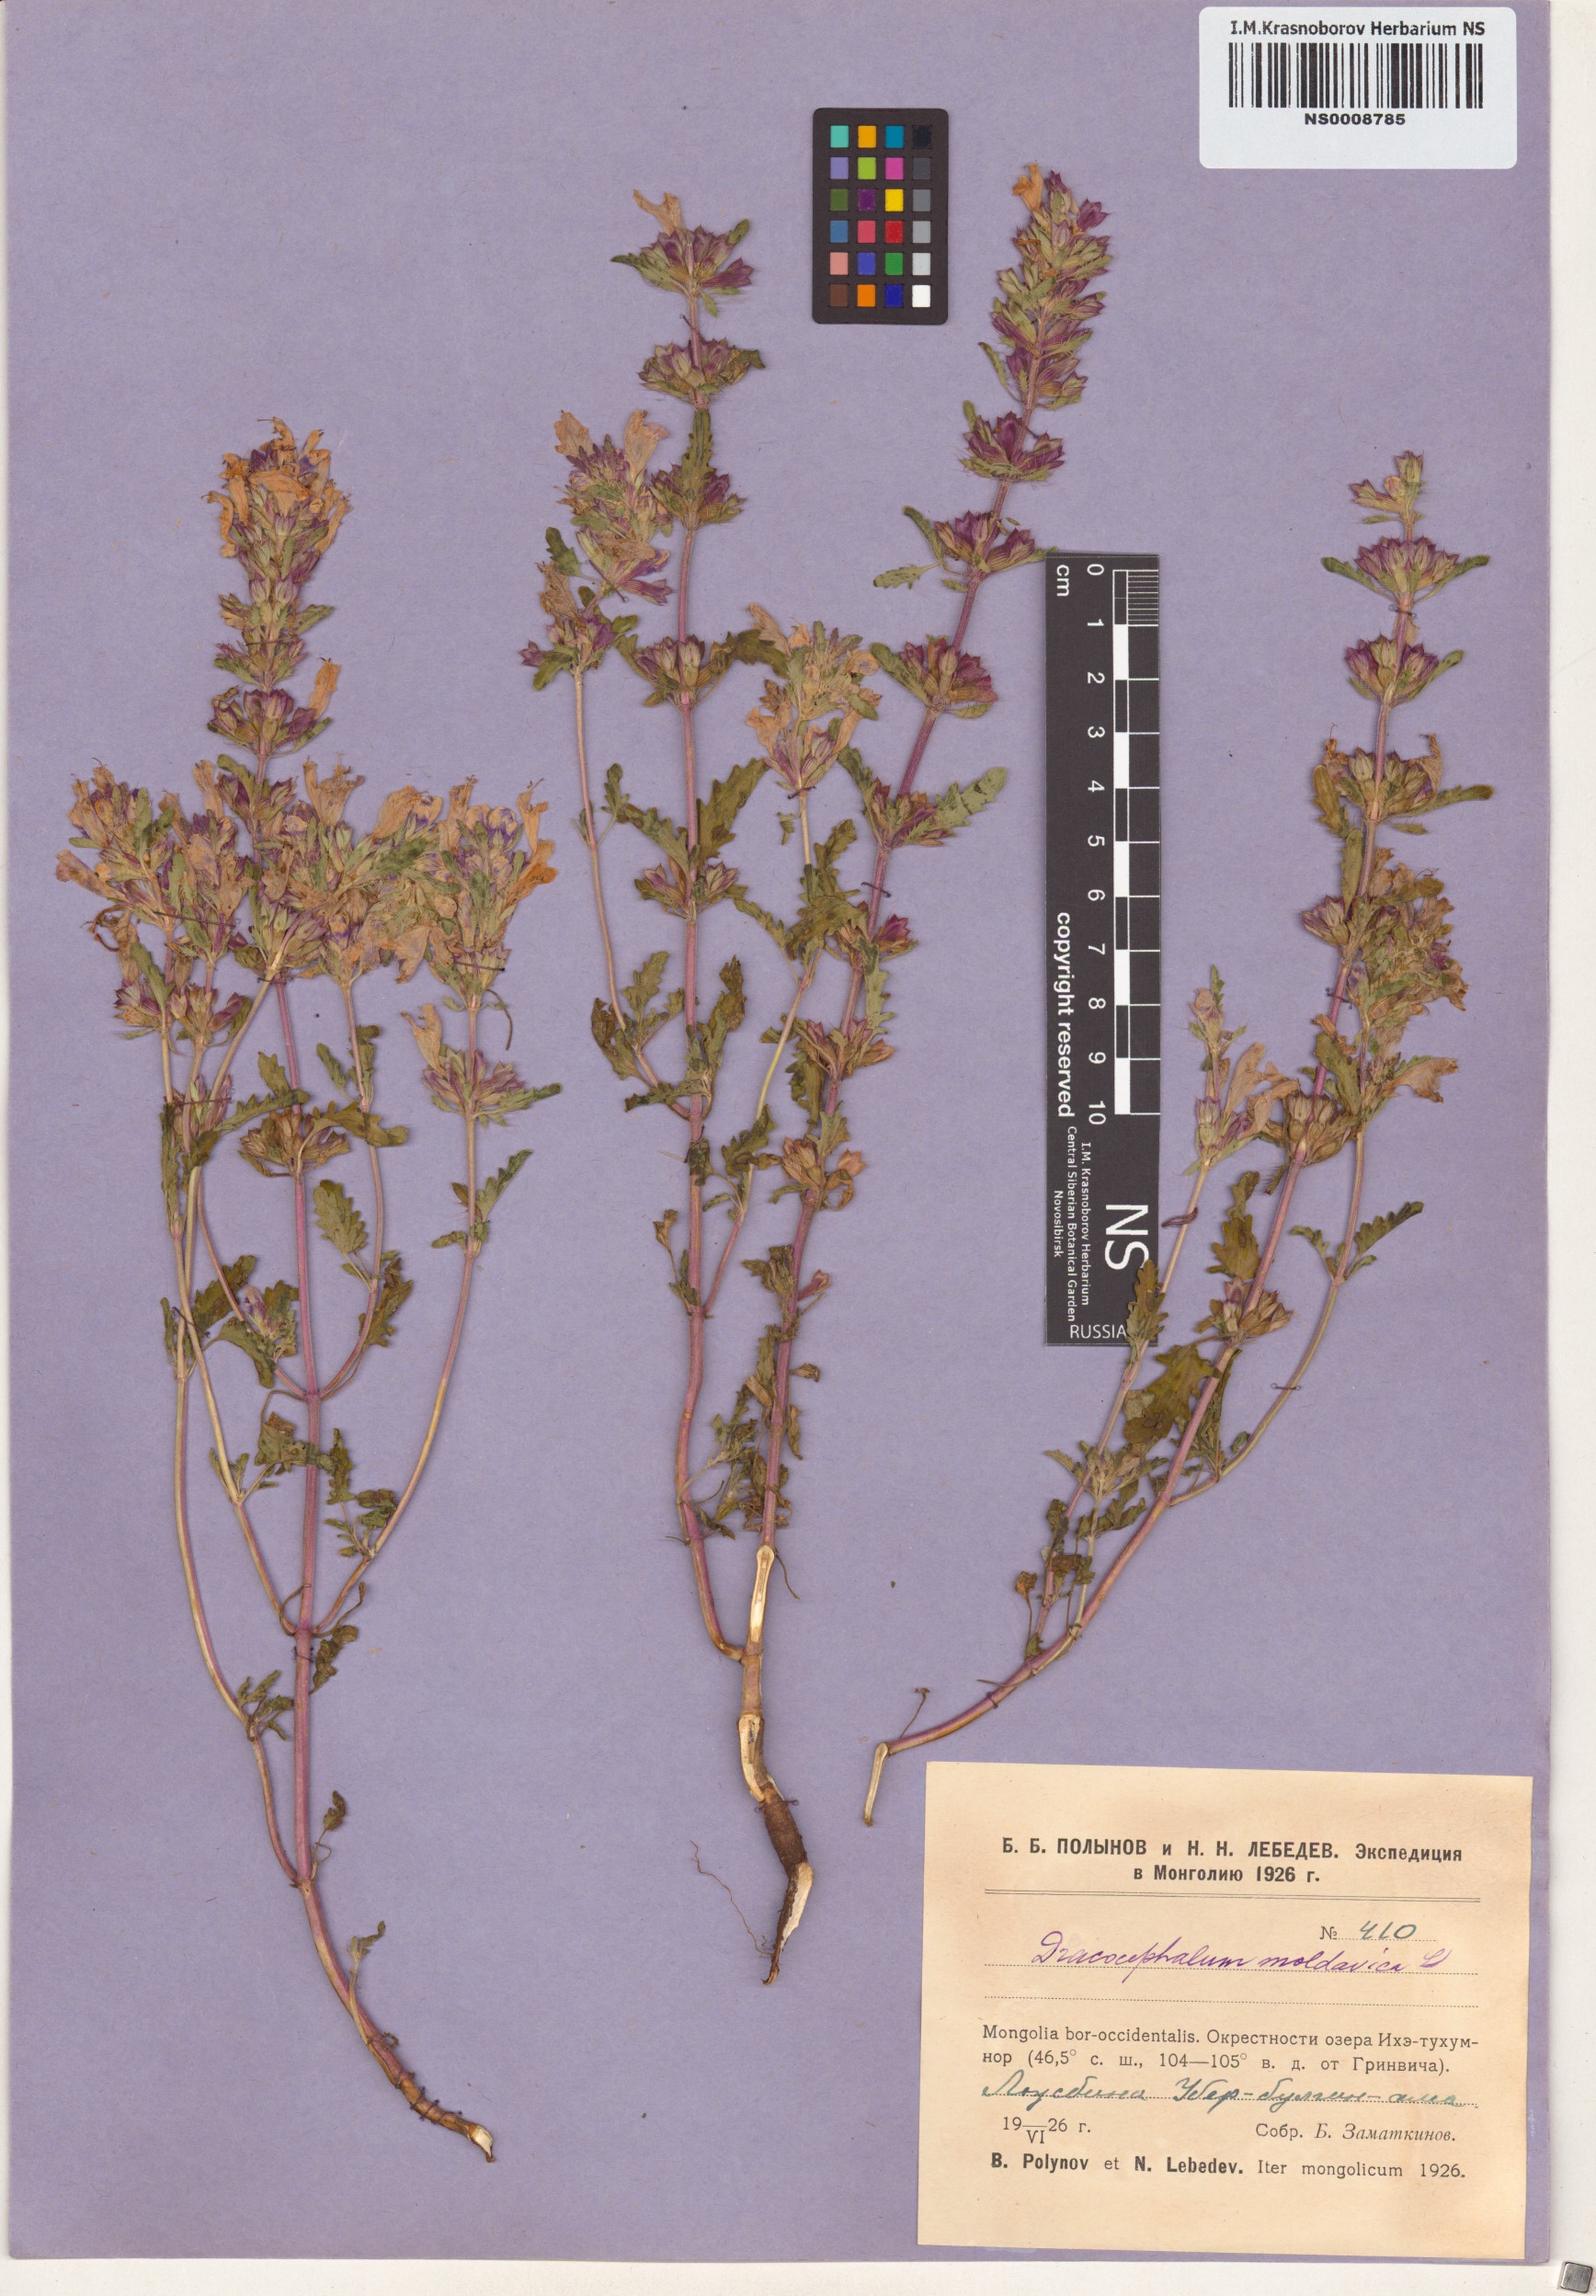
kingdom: Plantae
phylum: Tracheophyta
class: Magnoliopsida
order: Lamiales
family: Lamiaceae
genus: Dracocephalum
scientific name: Dracocephalum moldavica
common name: Moldavian dragonhead
